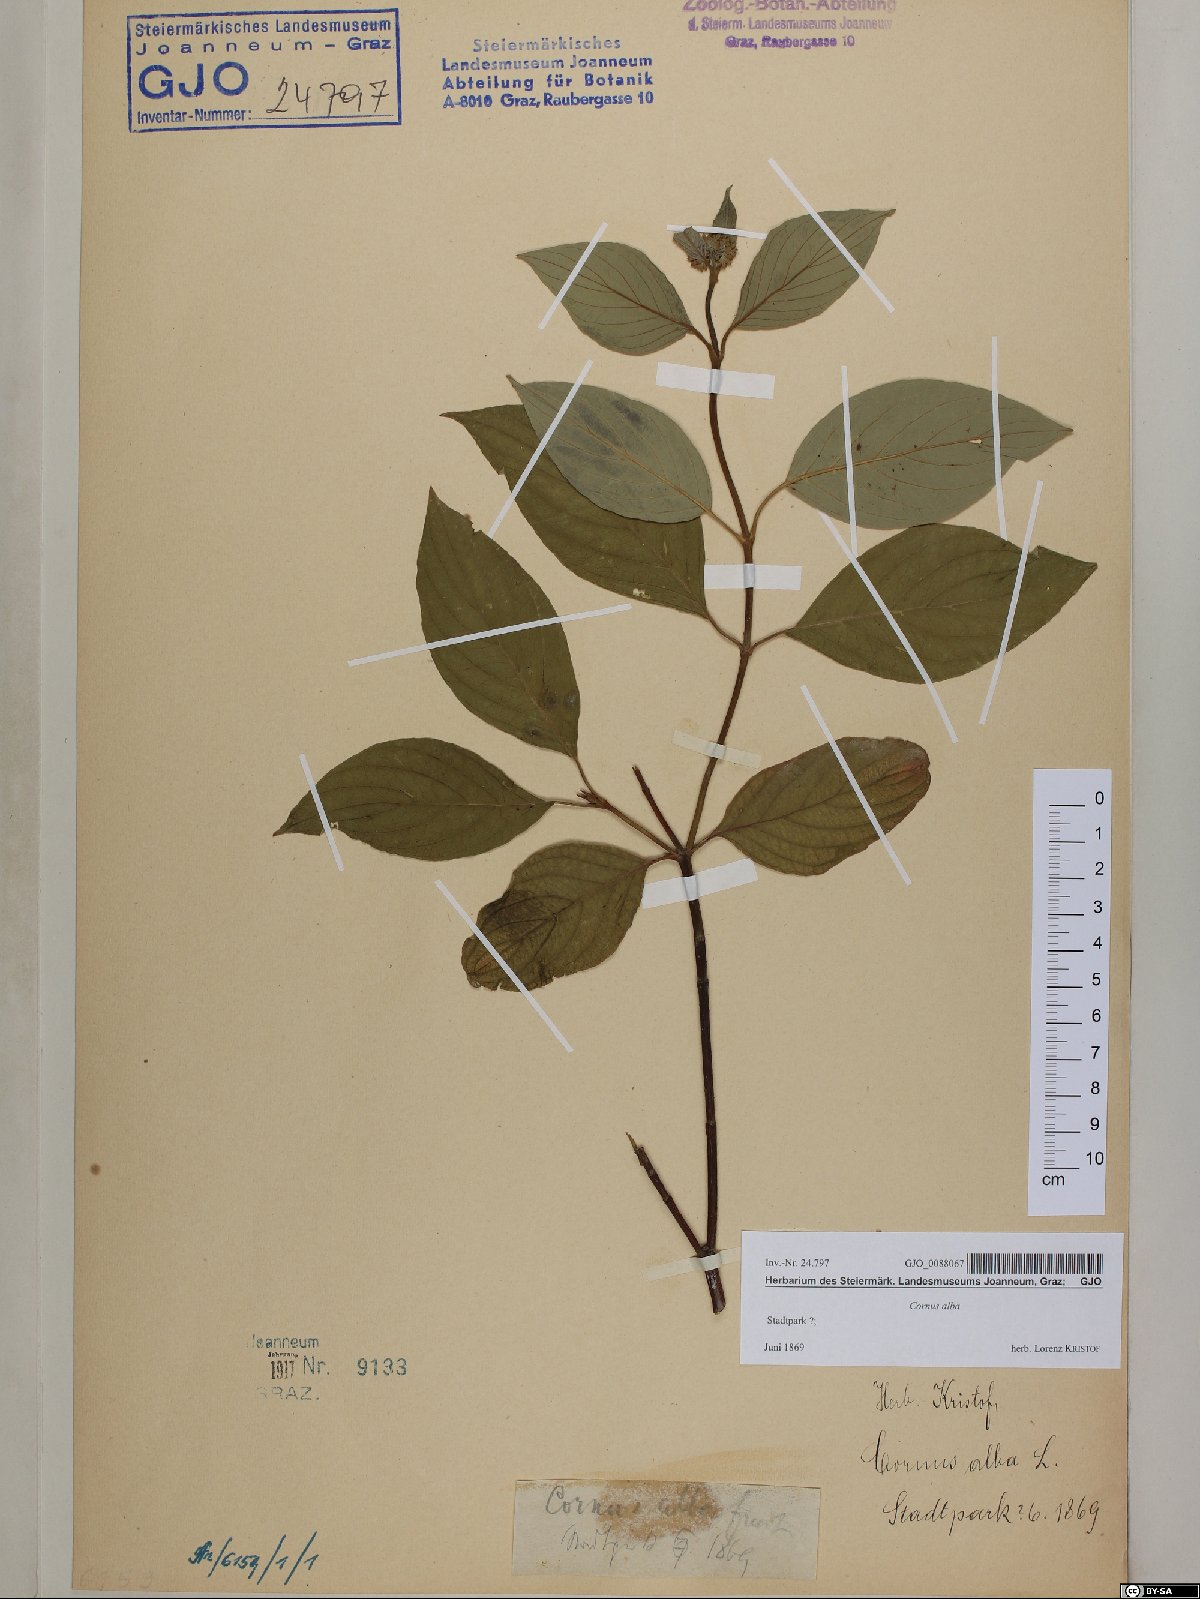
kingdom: Plantae
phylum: Tracheophyta
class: Magnoliopsida
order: Cornales
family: Cornaceae
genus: Cornus
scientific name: Cornus alba
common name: White dogwood
